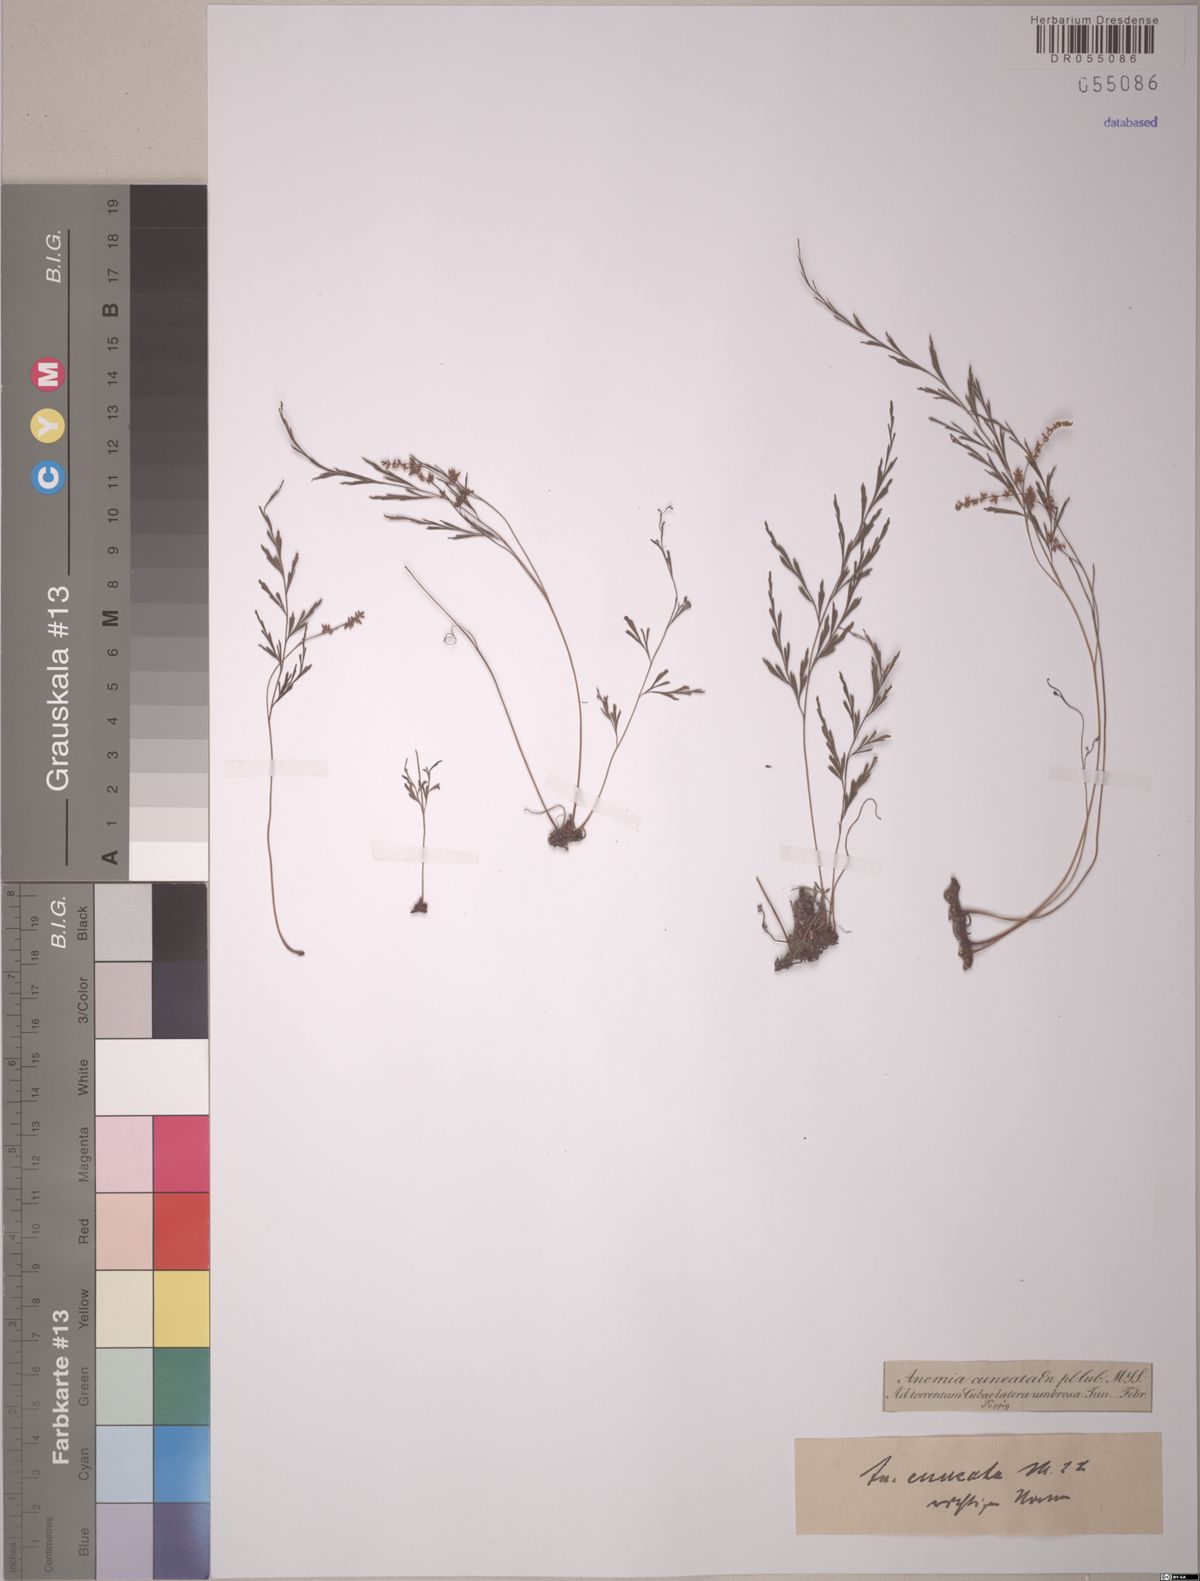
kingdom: Plantae
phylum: Tracheophyta
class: Polypodiopsida
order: Schizaeales
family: Anemiaceae
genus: Anemia
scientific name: Anemia cuneata
